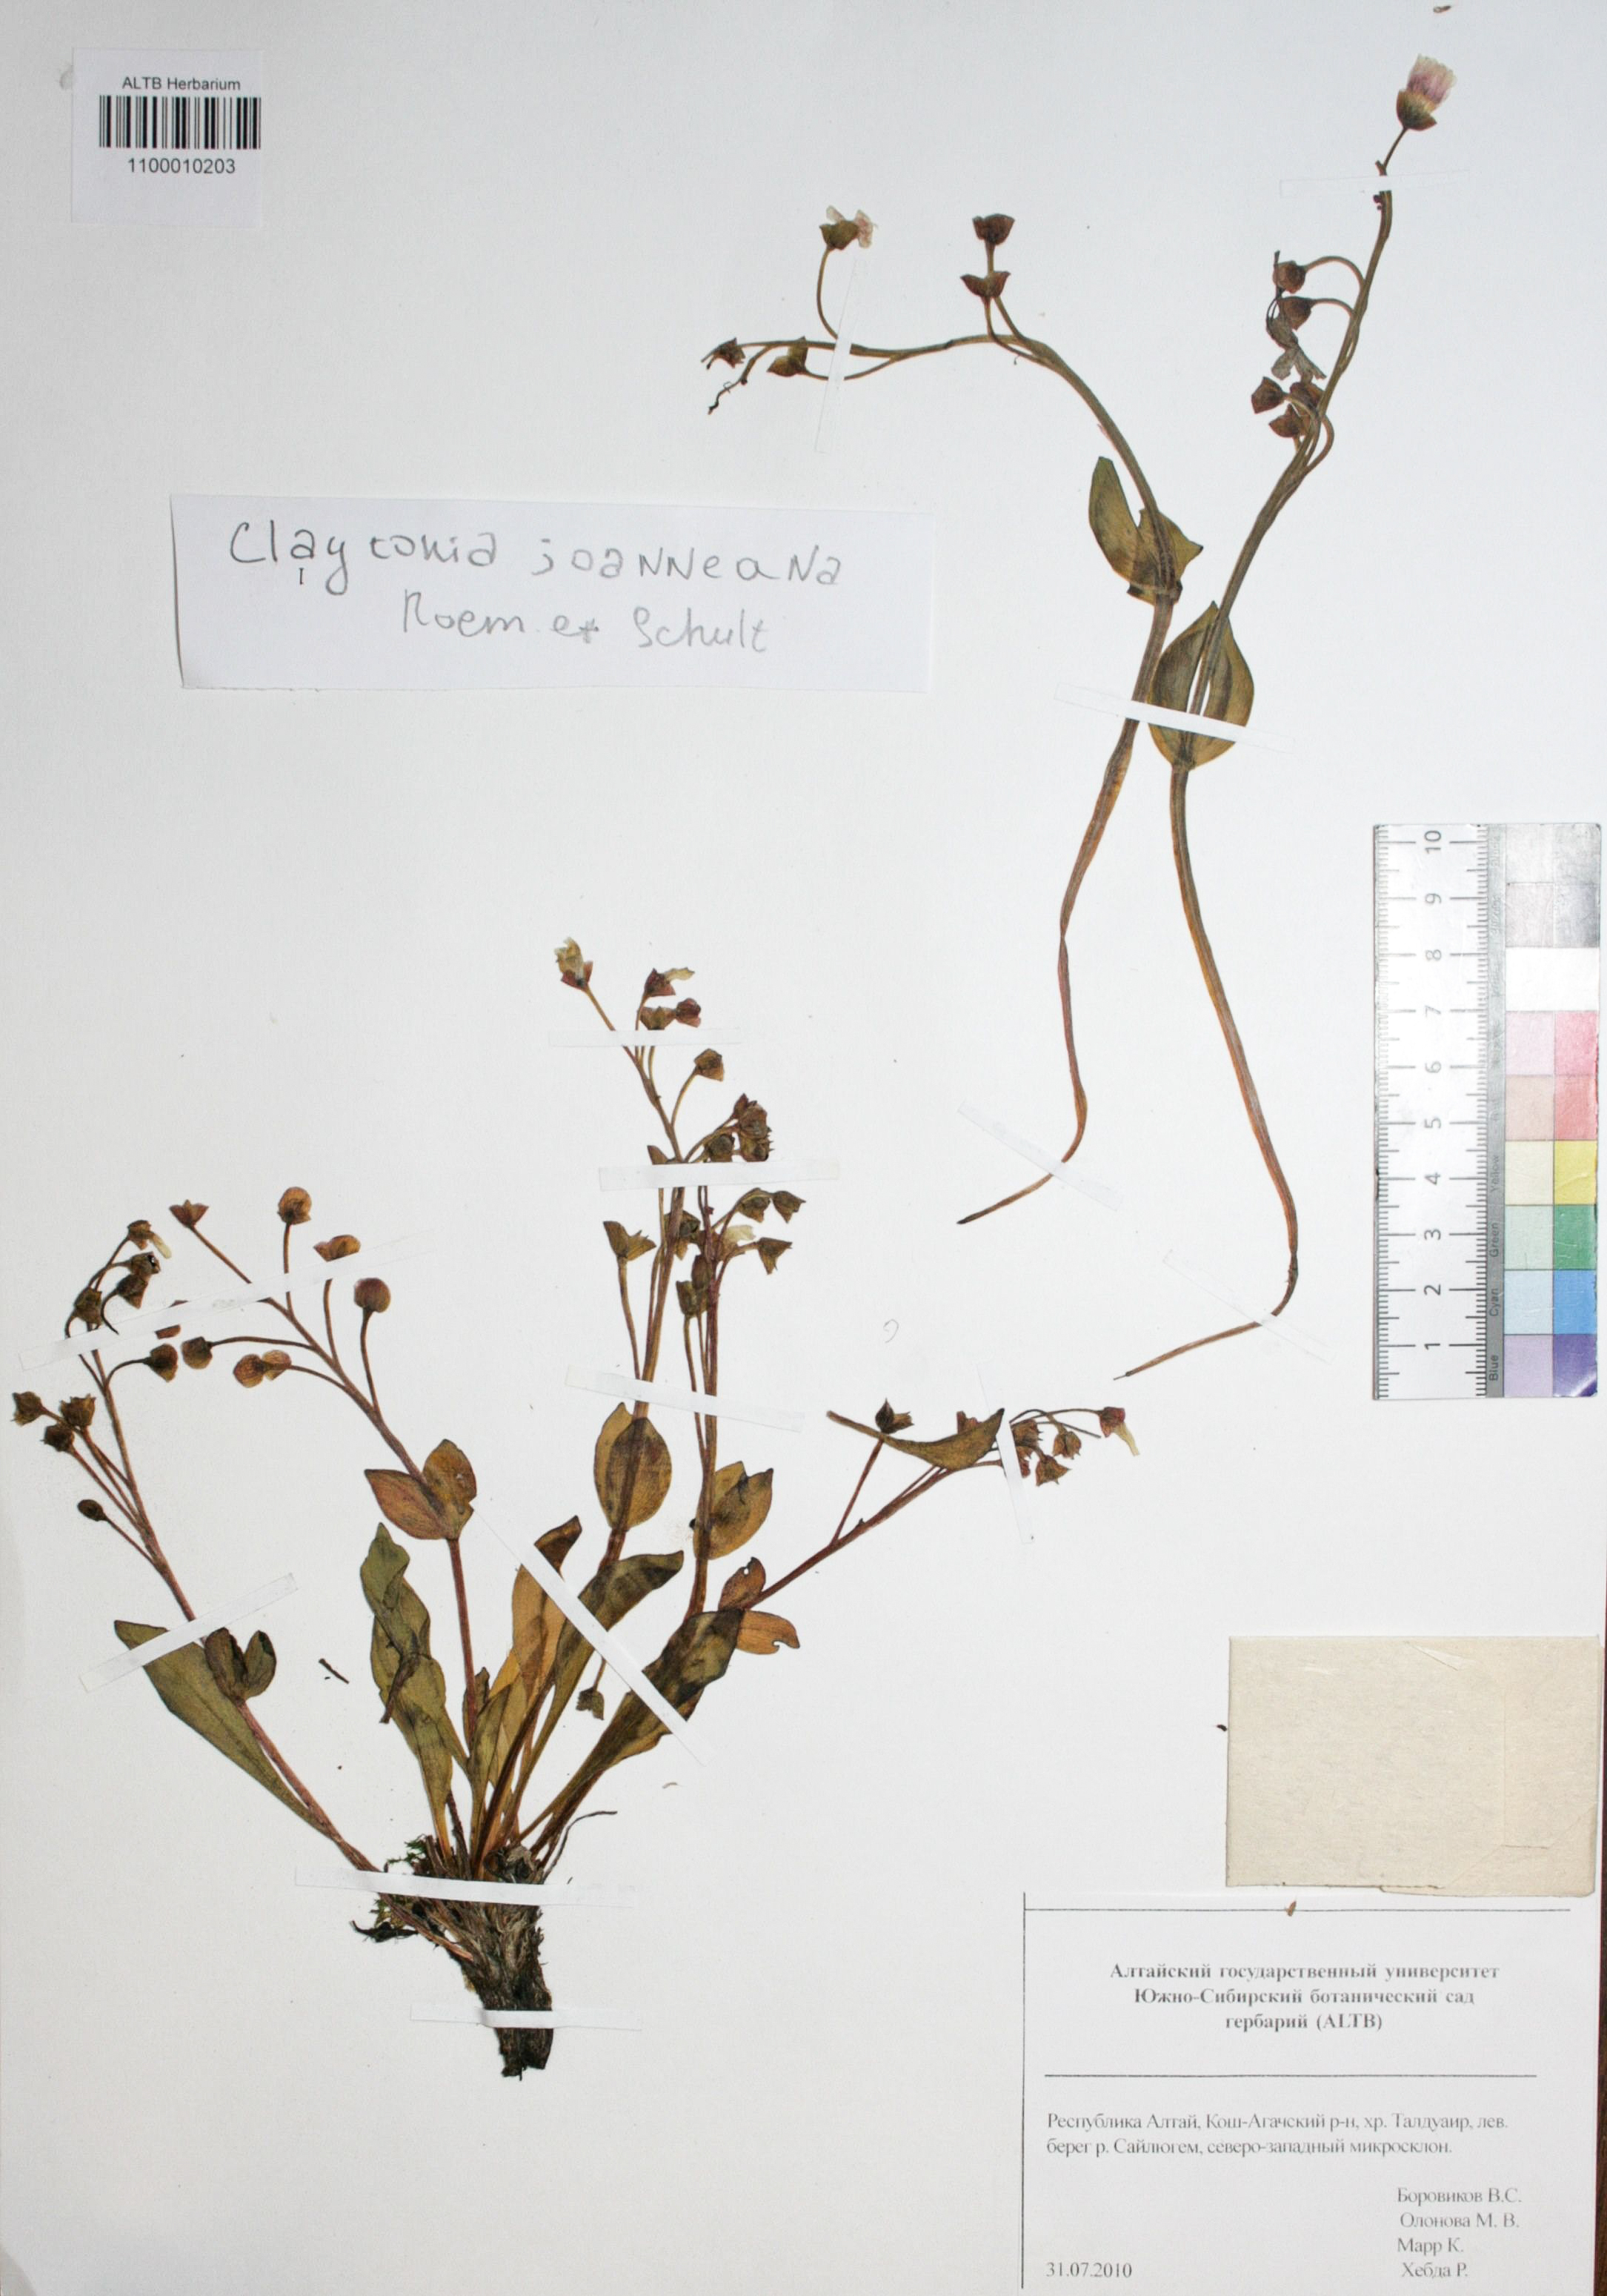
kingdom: Plantae
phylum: Tracheophyta
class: Magnoliopsida
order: Caryophyllales
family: Montiaceae
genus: Claytonia
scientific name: Claytonia joanneana
